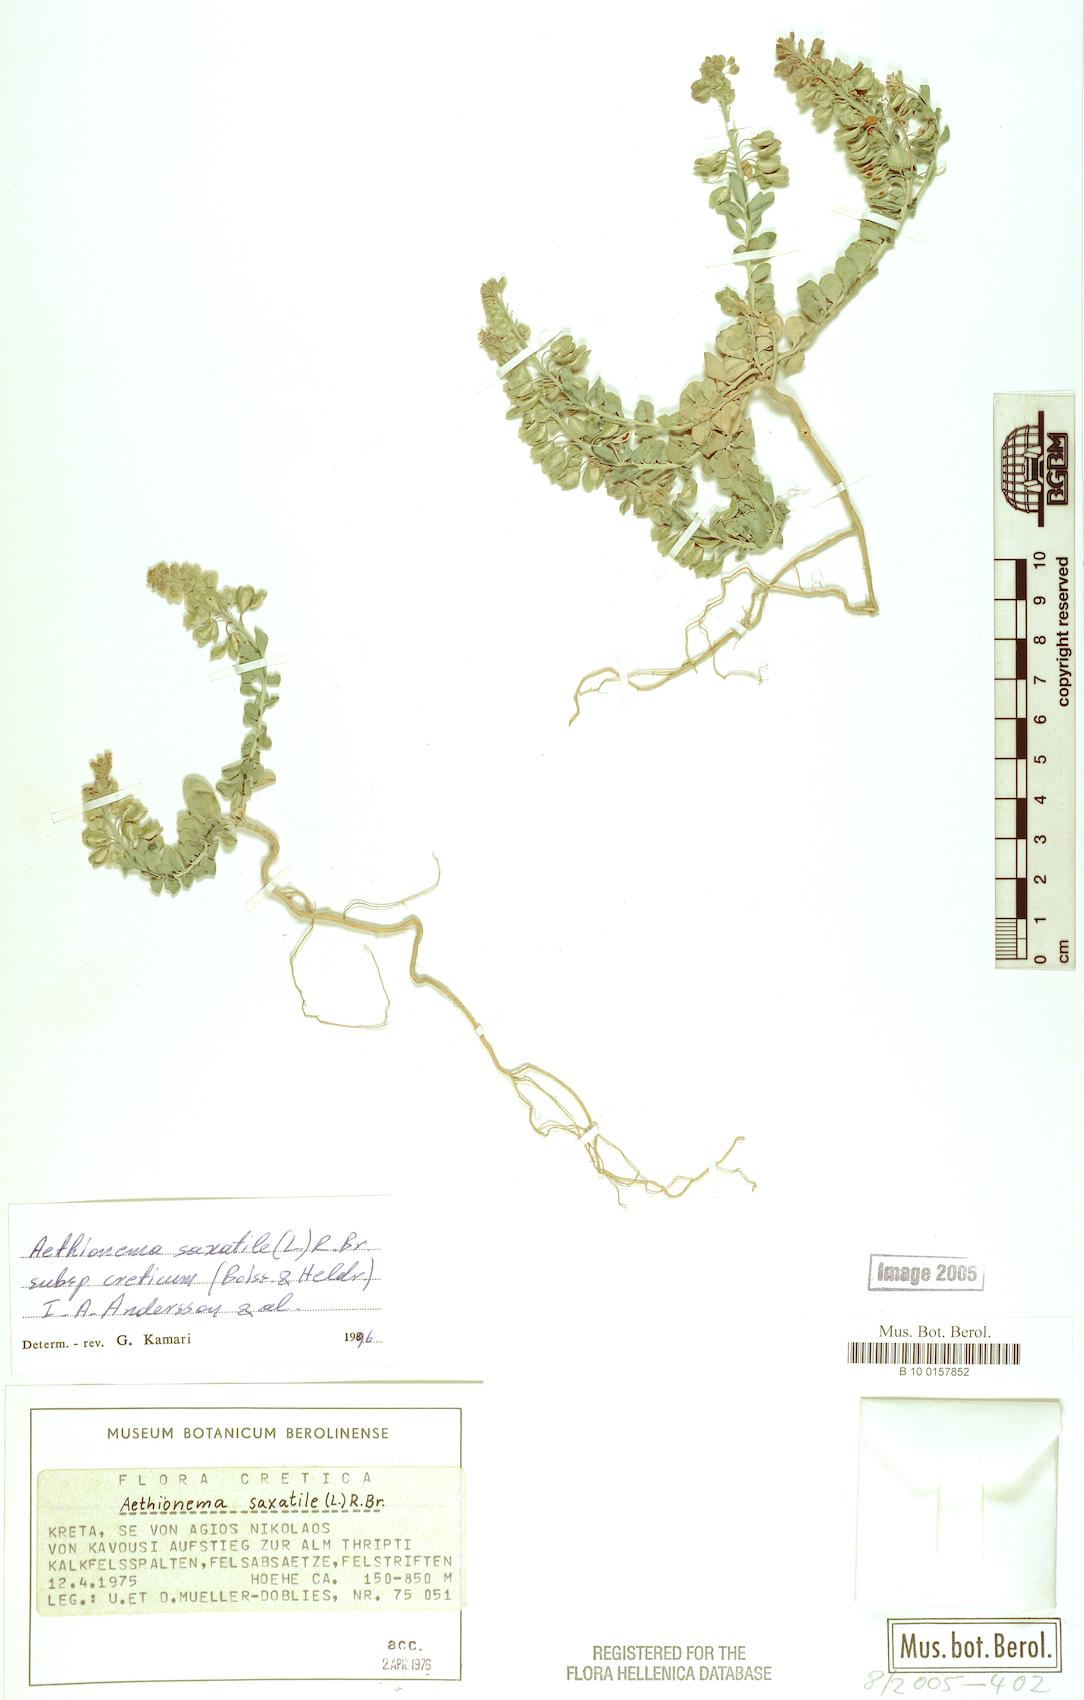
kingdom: Plantae
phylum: Tracheophyta
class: Magnoliopsida
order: Brassicales
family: Brassicaceae
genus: Aethionema
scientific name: Aethionema saxatile
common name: Burnt candytuft
